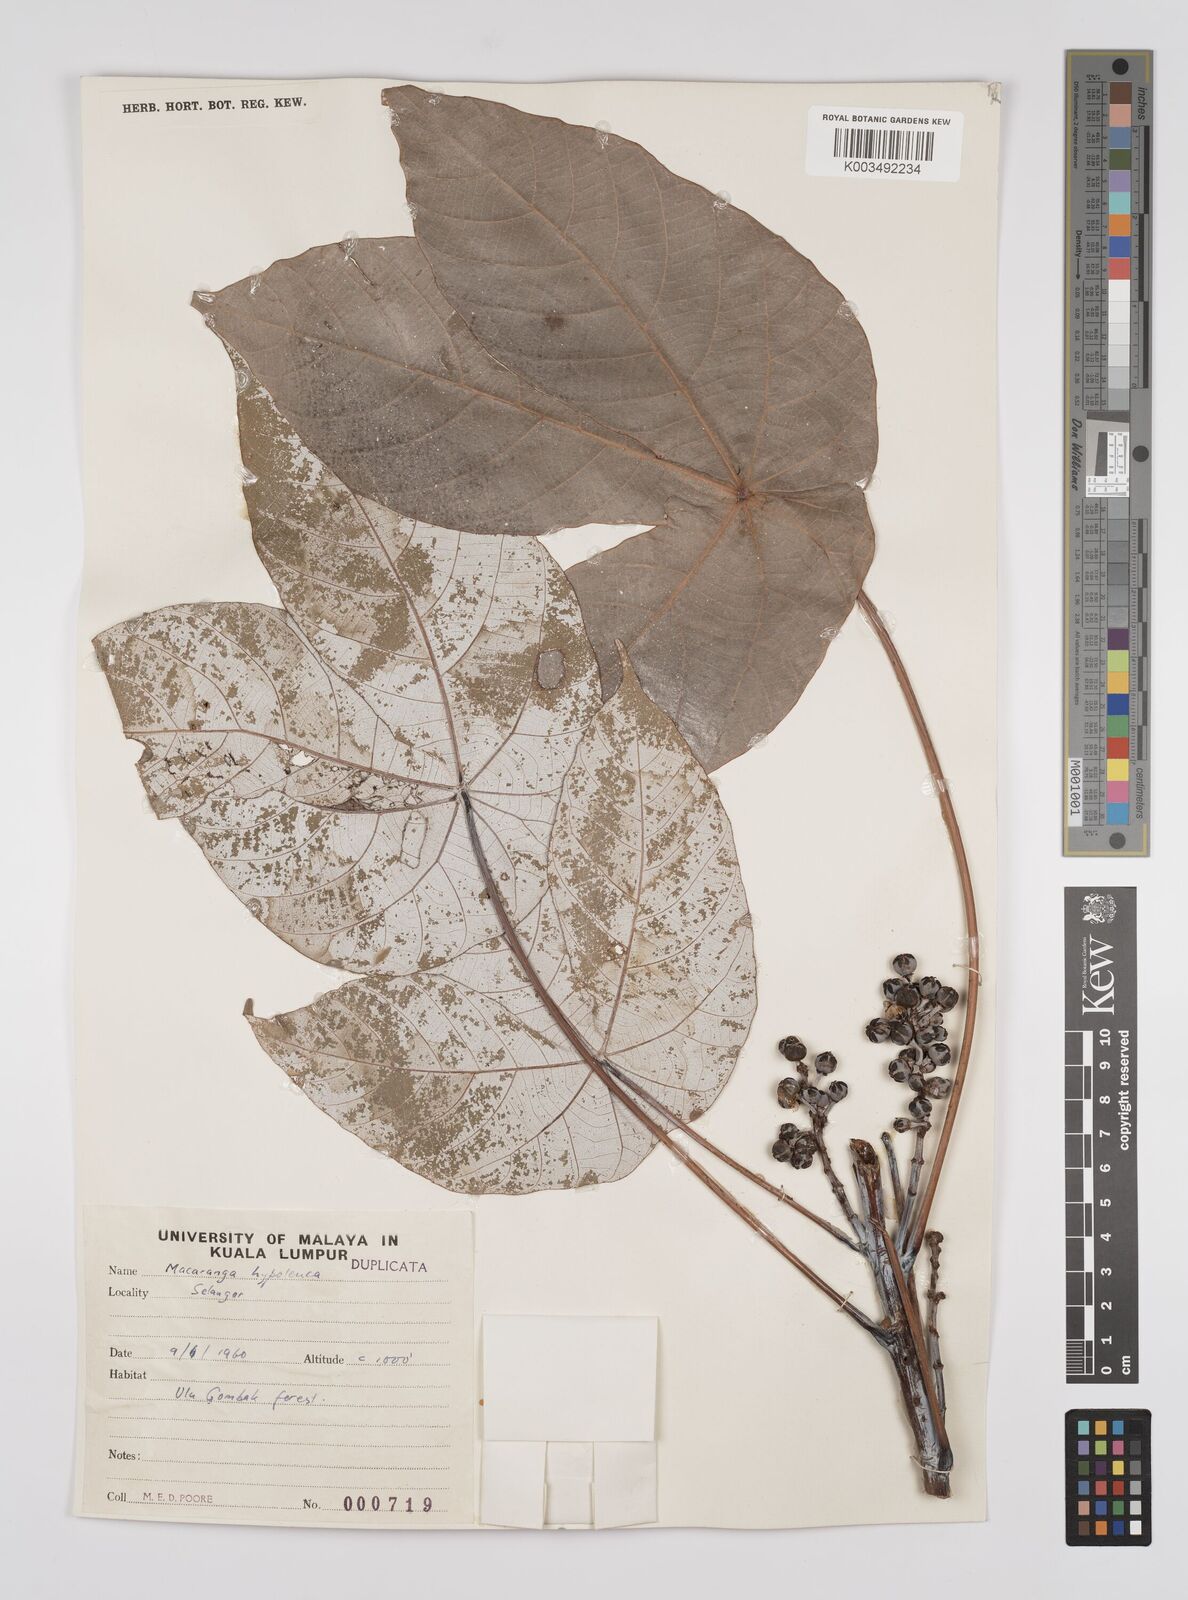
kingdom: Plantae
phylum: Tracheophyta
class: Magnoliopsida
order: Malpighiales
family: Euphorbiaceae
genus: Macaranga
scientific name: Macaranga hypoleuca
